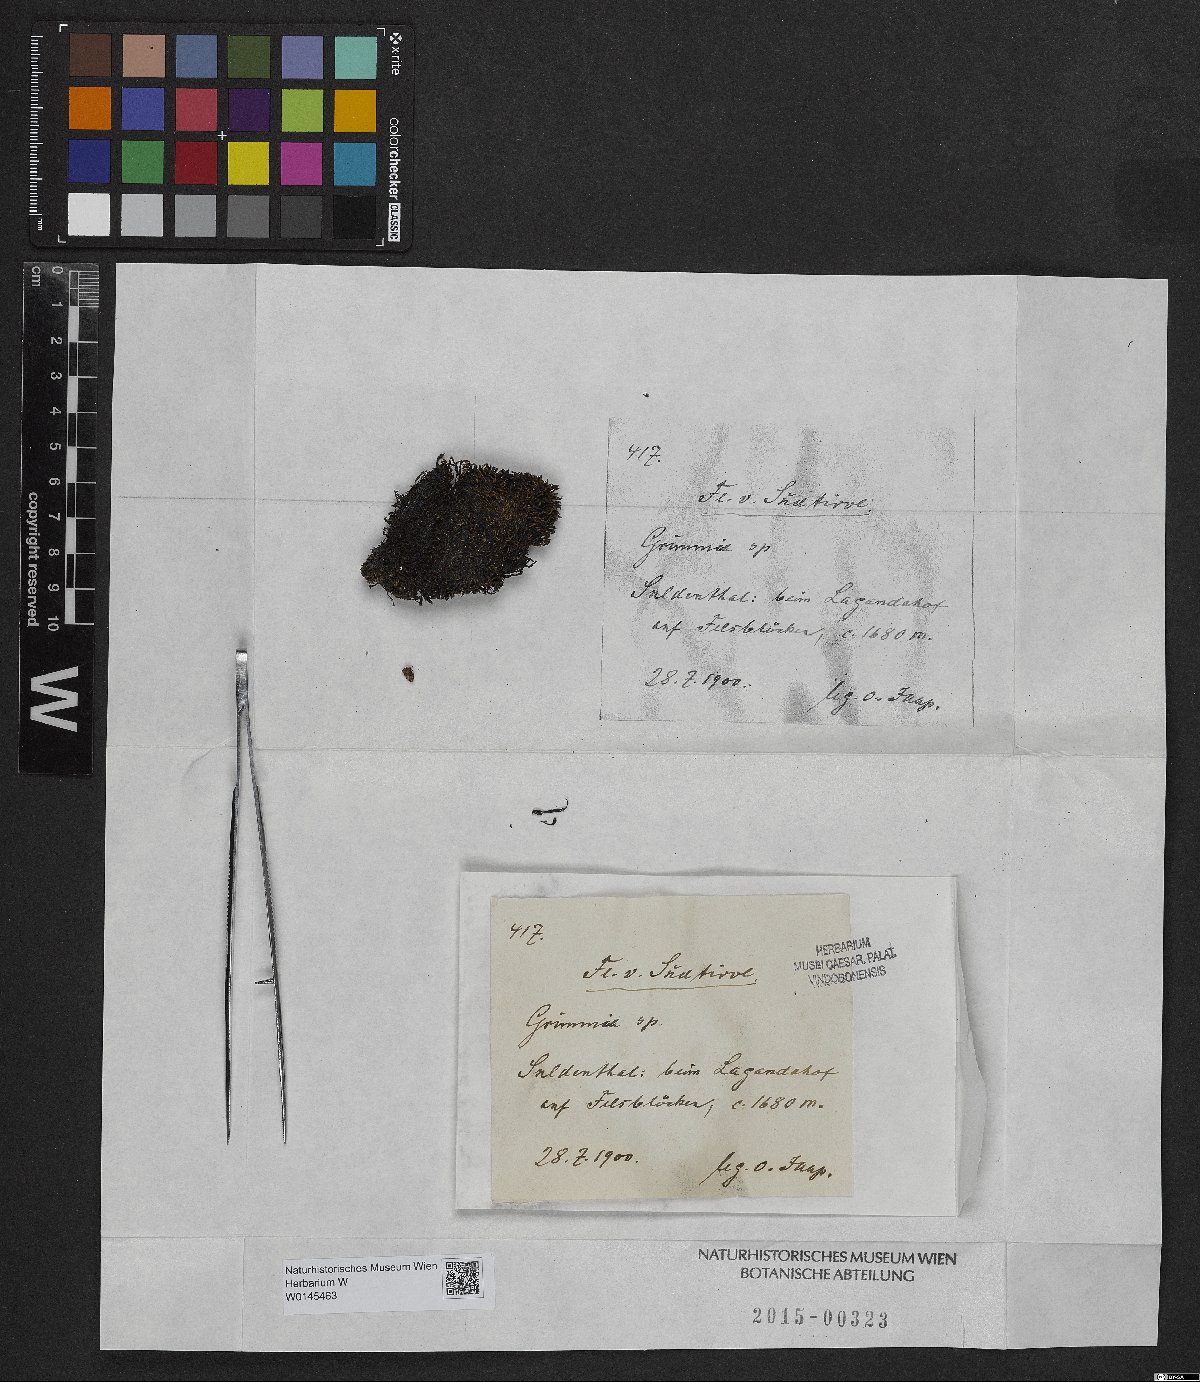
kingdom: Plantae
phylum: Bryophyta
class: Bryopsida
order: Grimmiales
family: Grimmiaceae
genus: Grimmia
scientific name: Grimmia
